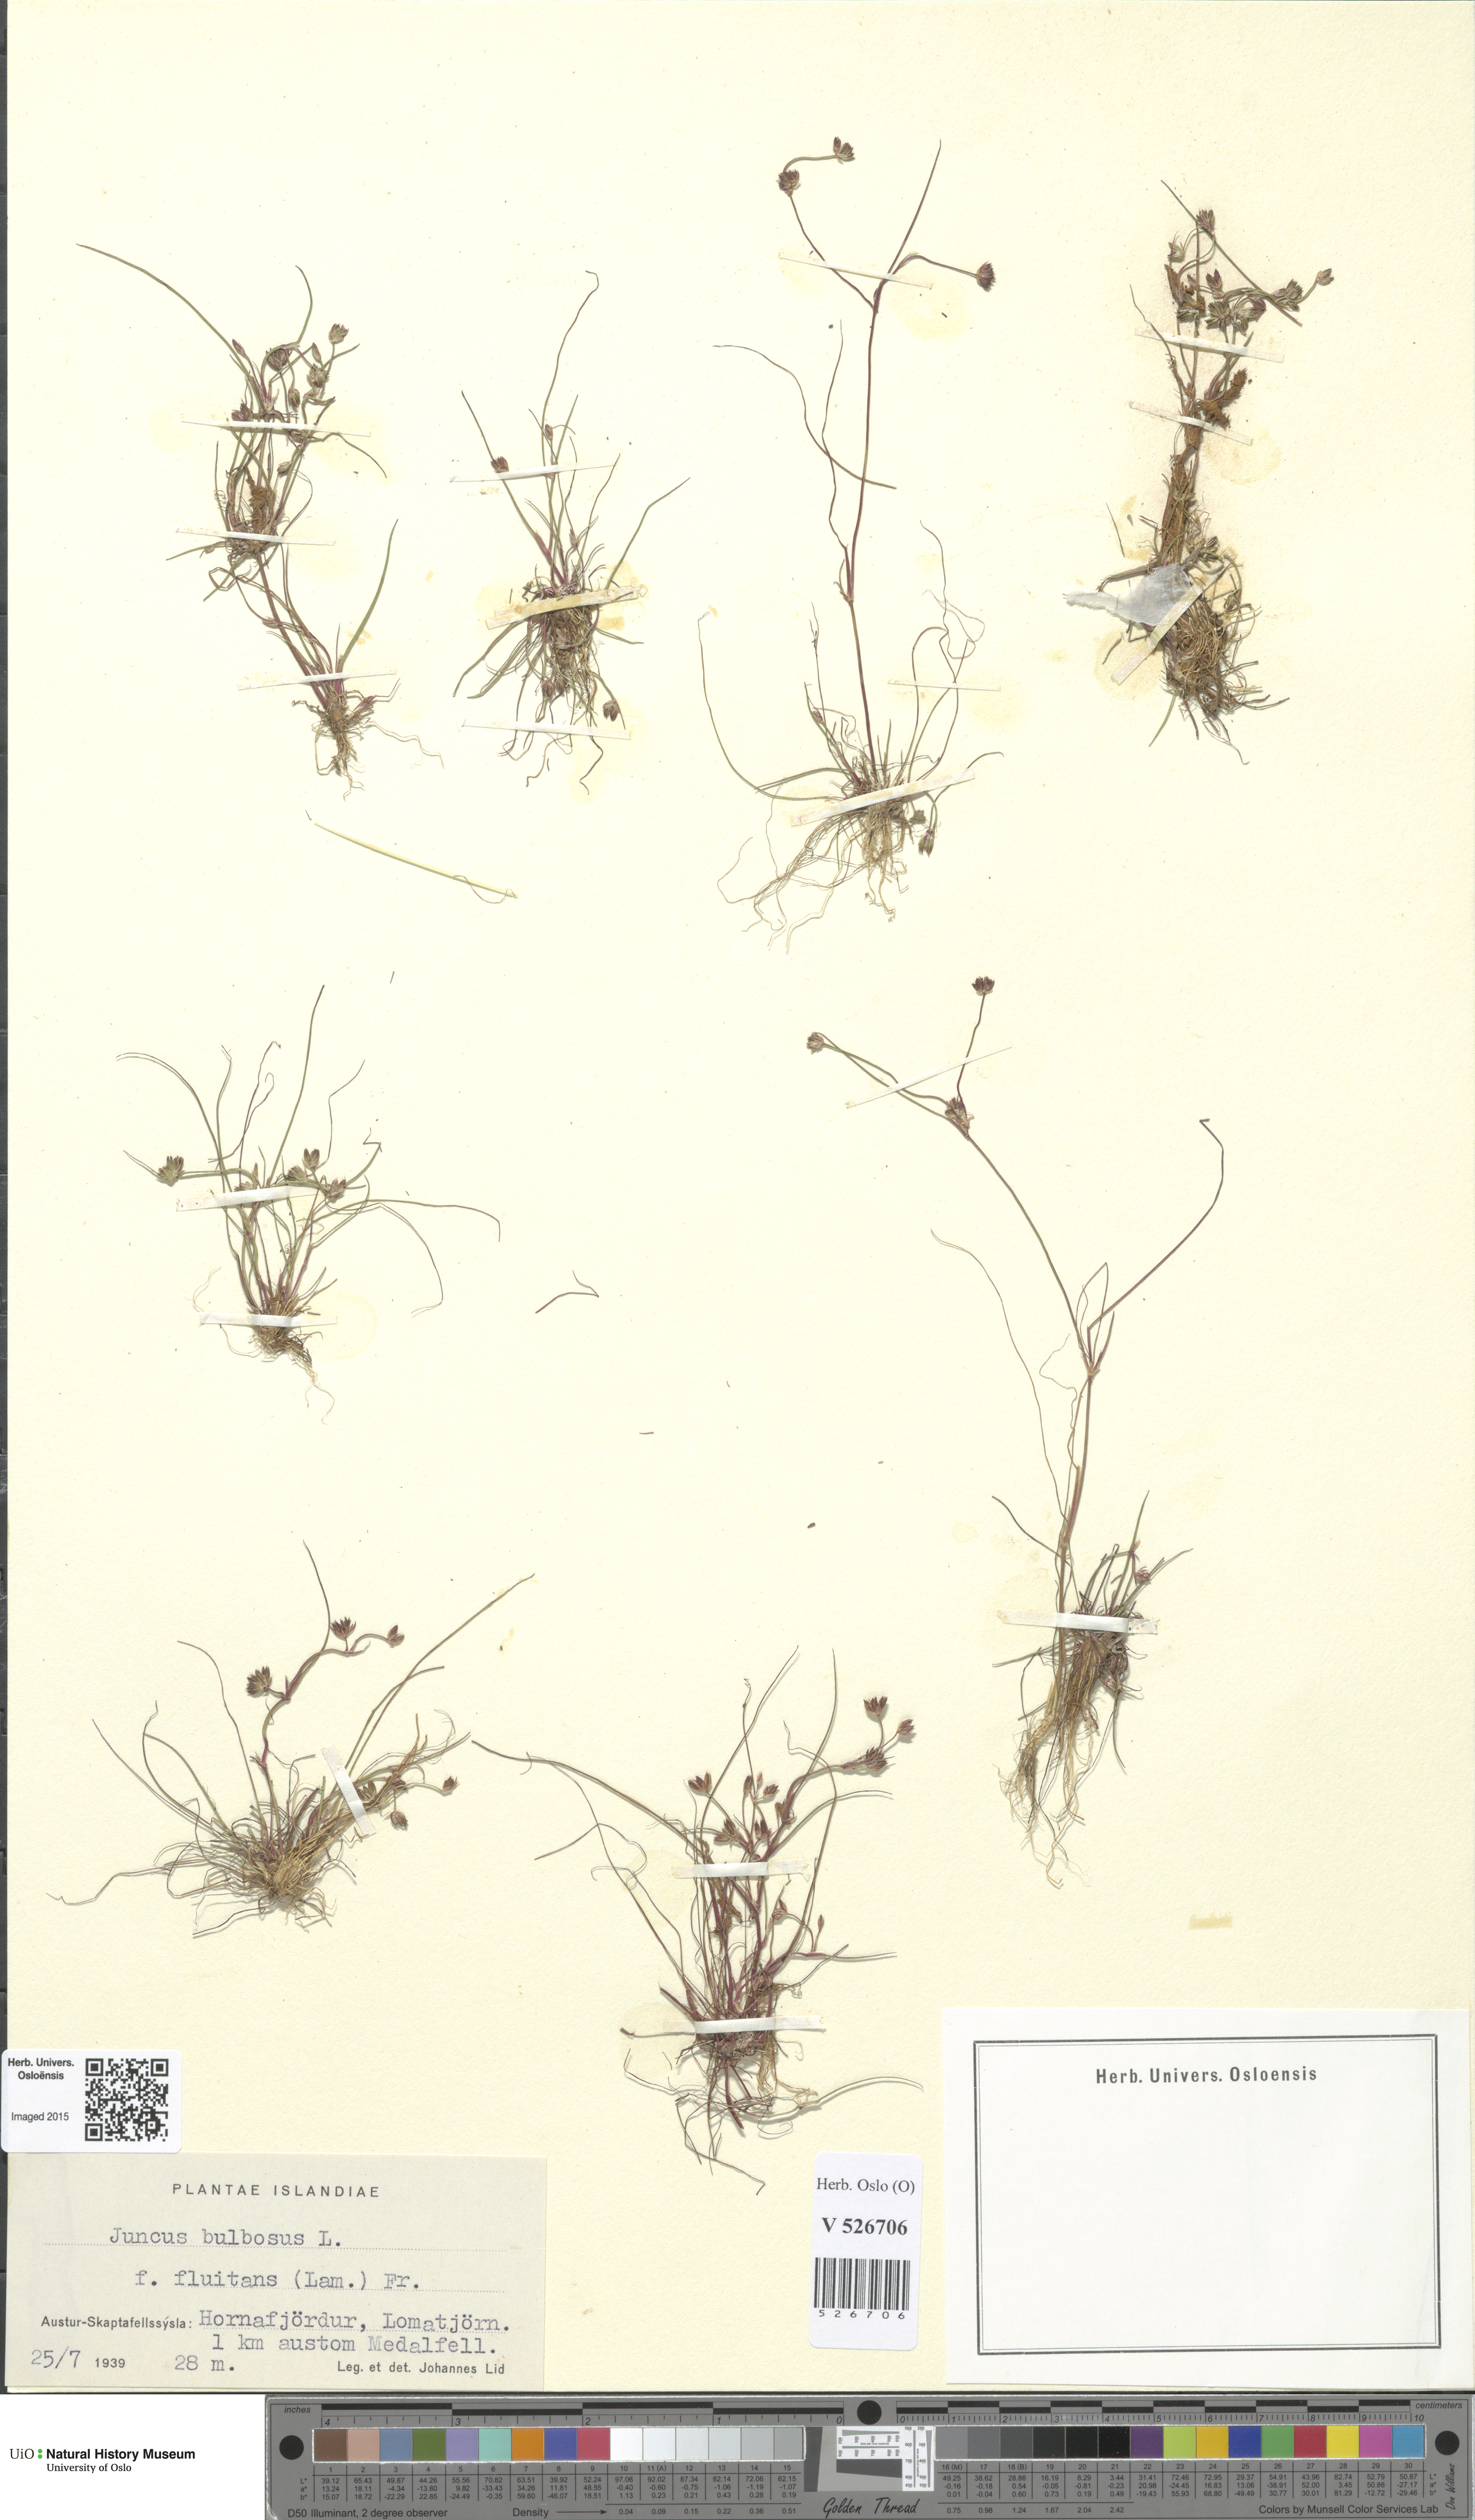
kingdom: Plantae
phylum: Tracheophyta
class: Liliopsida
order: Poales
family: Juncaceae
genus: Juncus
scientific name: Juncus bulbosus
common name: Bulbous rush
